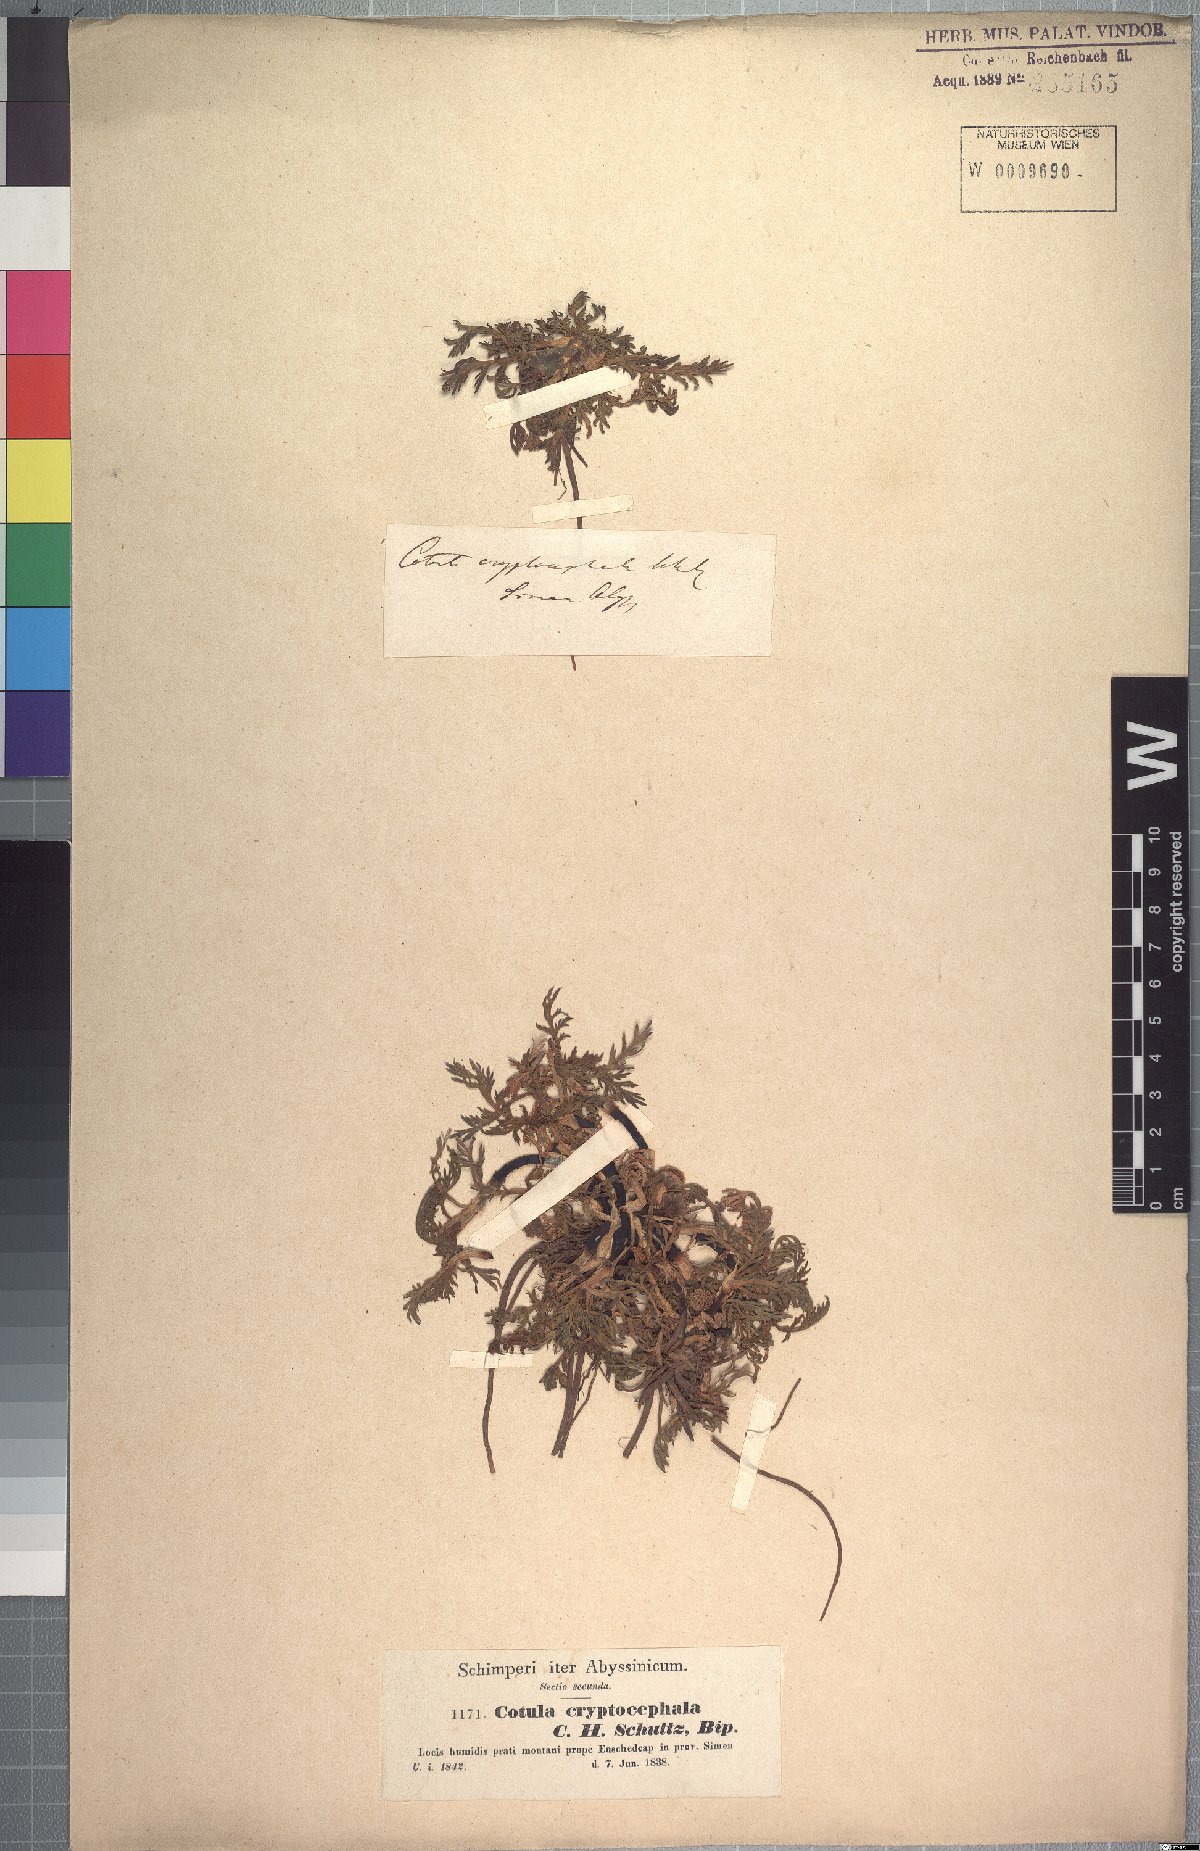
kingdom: Plantae
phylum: Tracheophyta
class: Magnoliopsida
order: Asterales
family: Asteraceae
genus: Cotula
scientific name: Cotula cryptocephala
